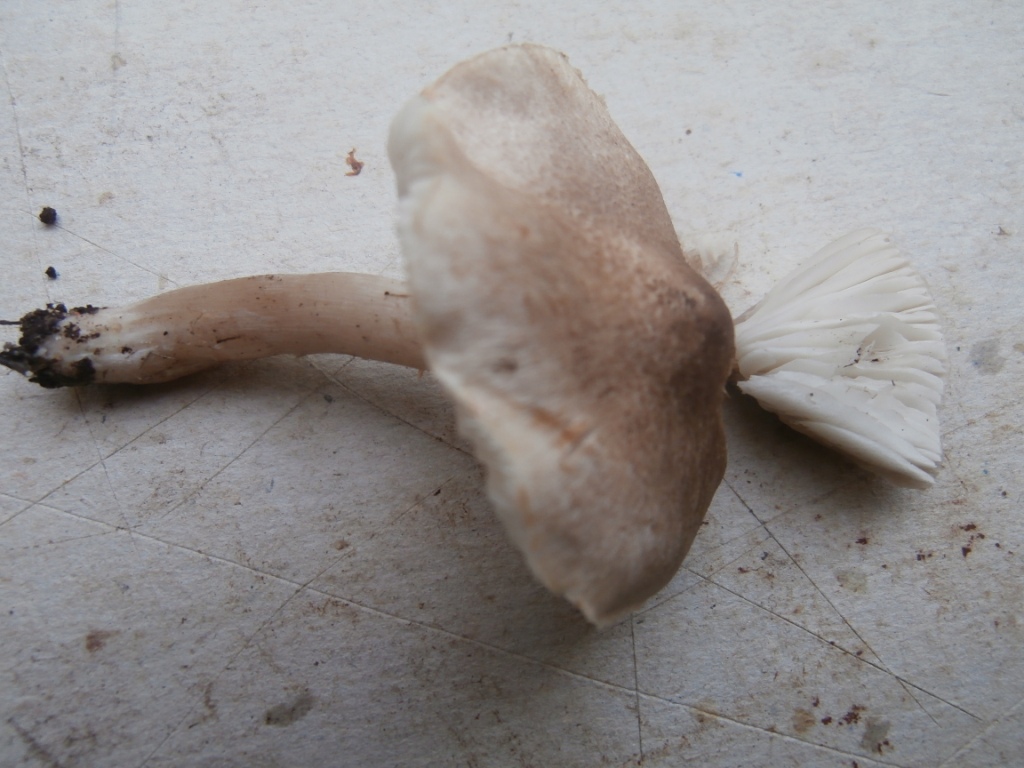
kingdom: Fungi
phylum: Basidiomycota
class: Agaricomycetes
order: Agaricales
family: Tricholomataceae
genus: Tricholoma
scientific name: Tricholoma argyraceum
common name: slør-ridderhat
